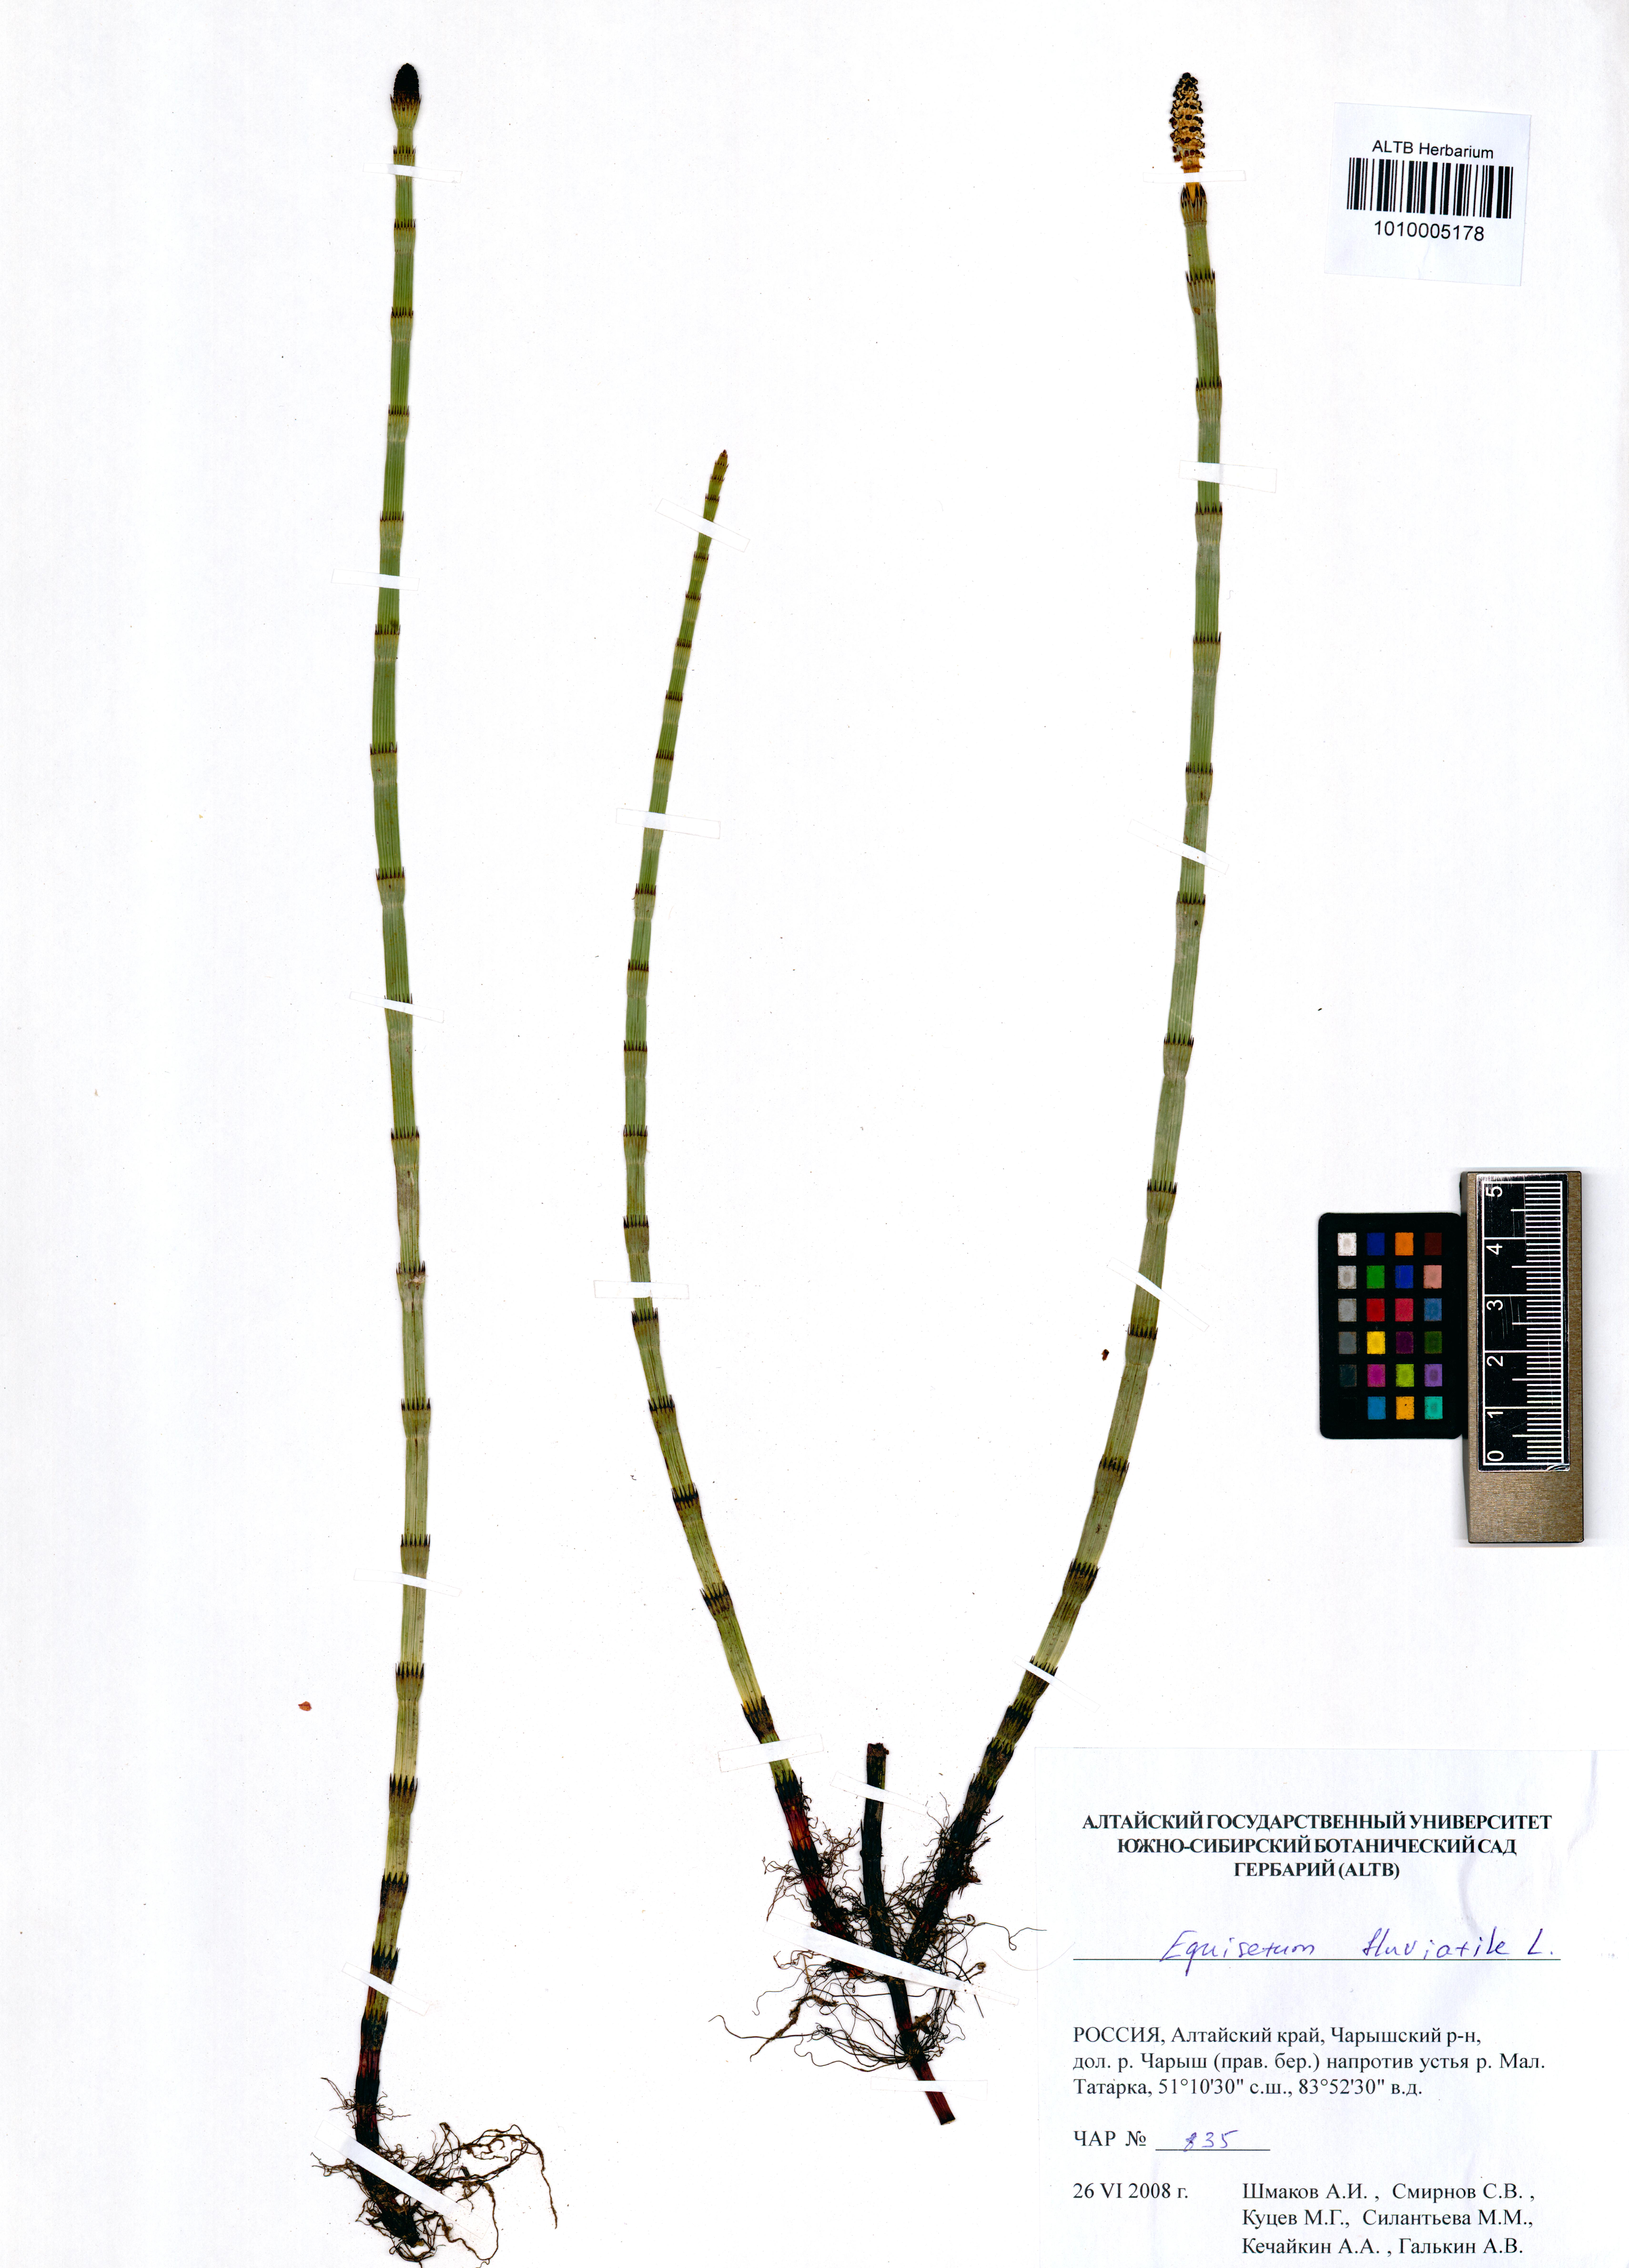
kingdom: Plantae
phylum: Tracheophyta
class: Polypodiopsida
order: Equisetales
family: Equisetaceae
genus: Equisetum
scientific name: Equisetum fluviatile
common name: Water horsetail
